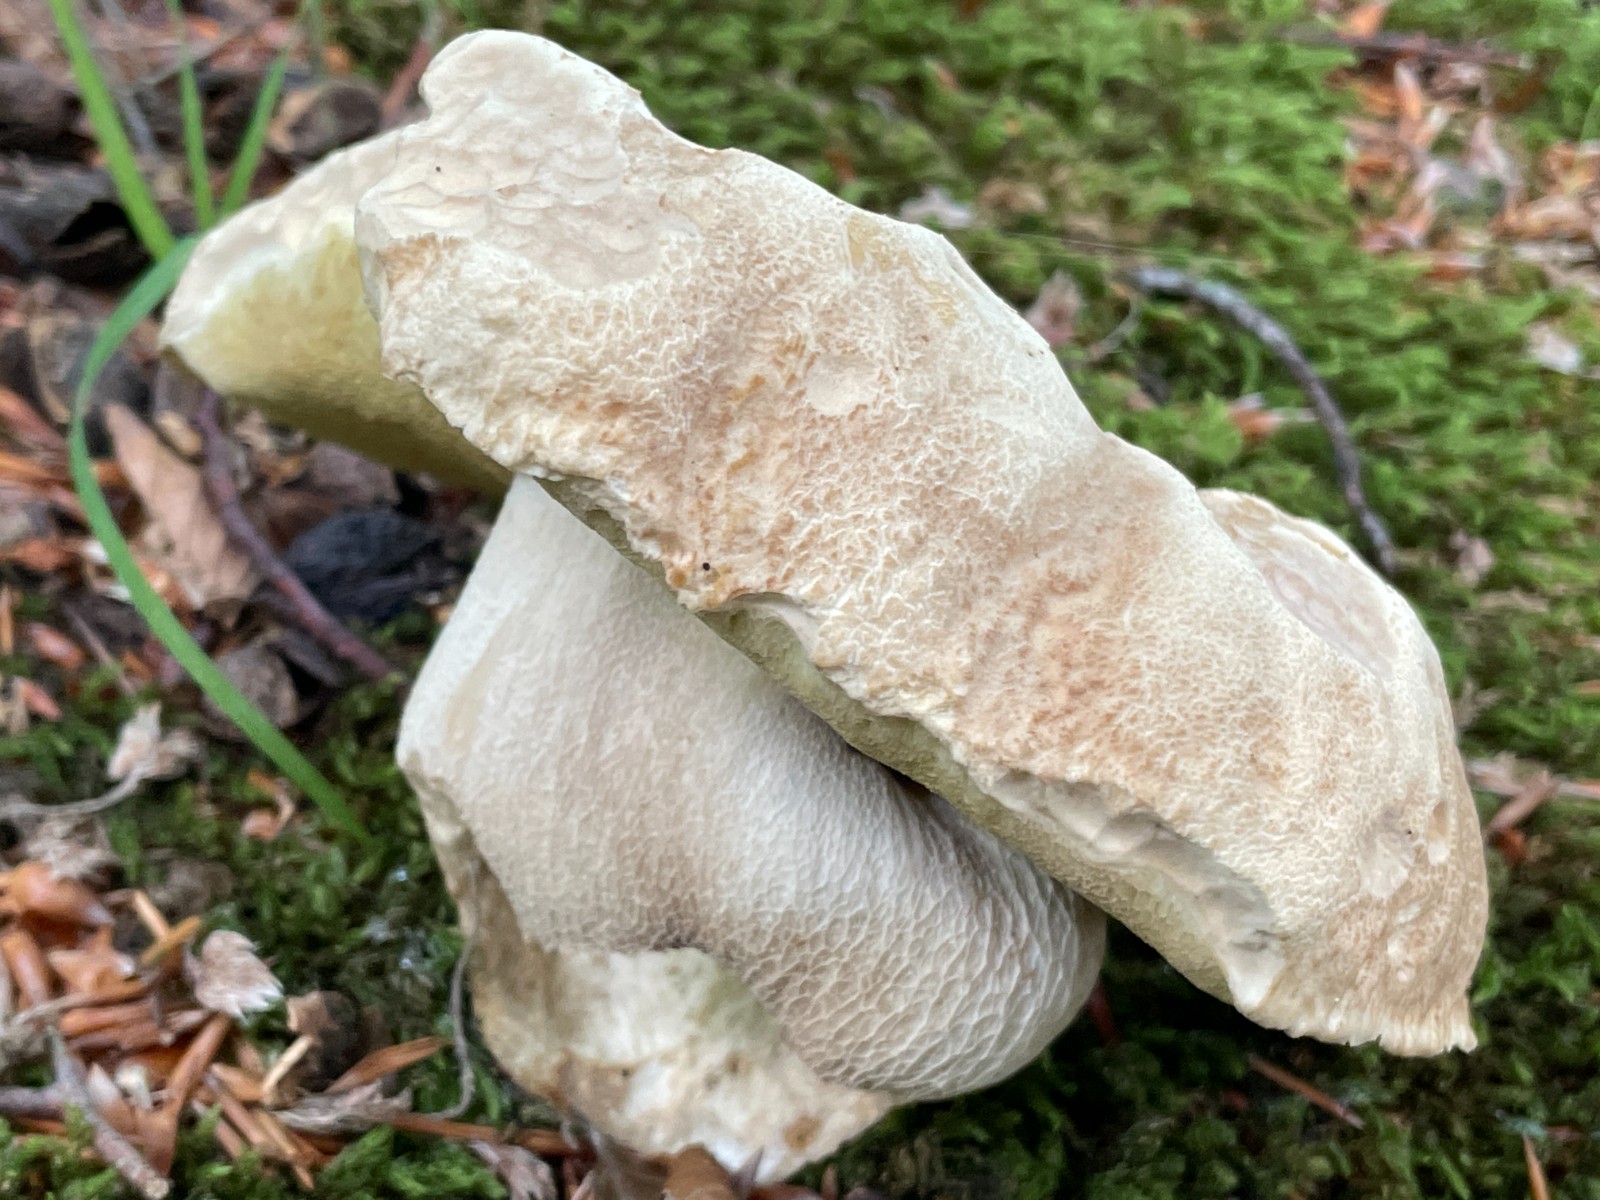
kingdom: Fungi
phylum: Basidiomycota
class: Agaricomycetes
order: Boletales
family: Boletaceae
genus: Boletus
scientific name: Boletus reticulatus
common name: sommer-rørhat
